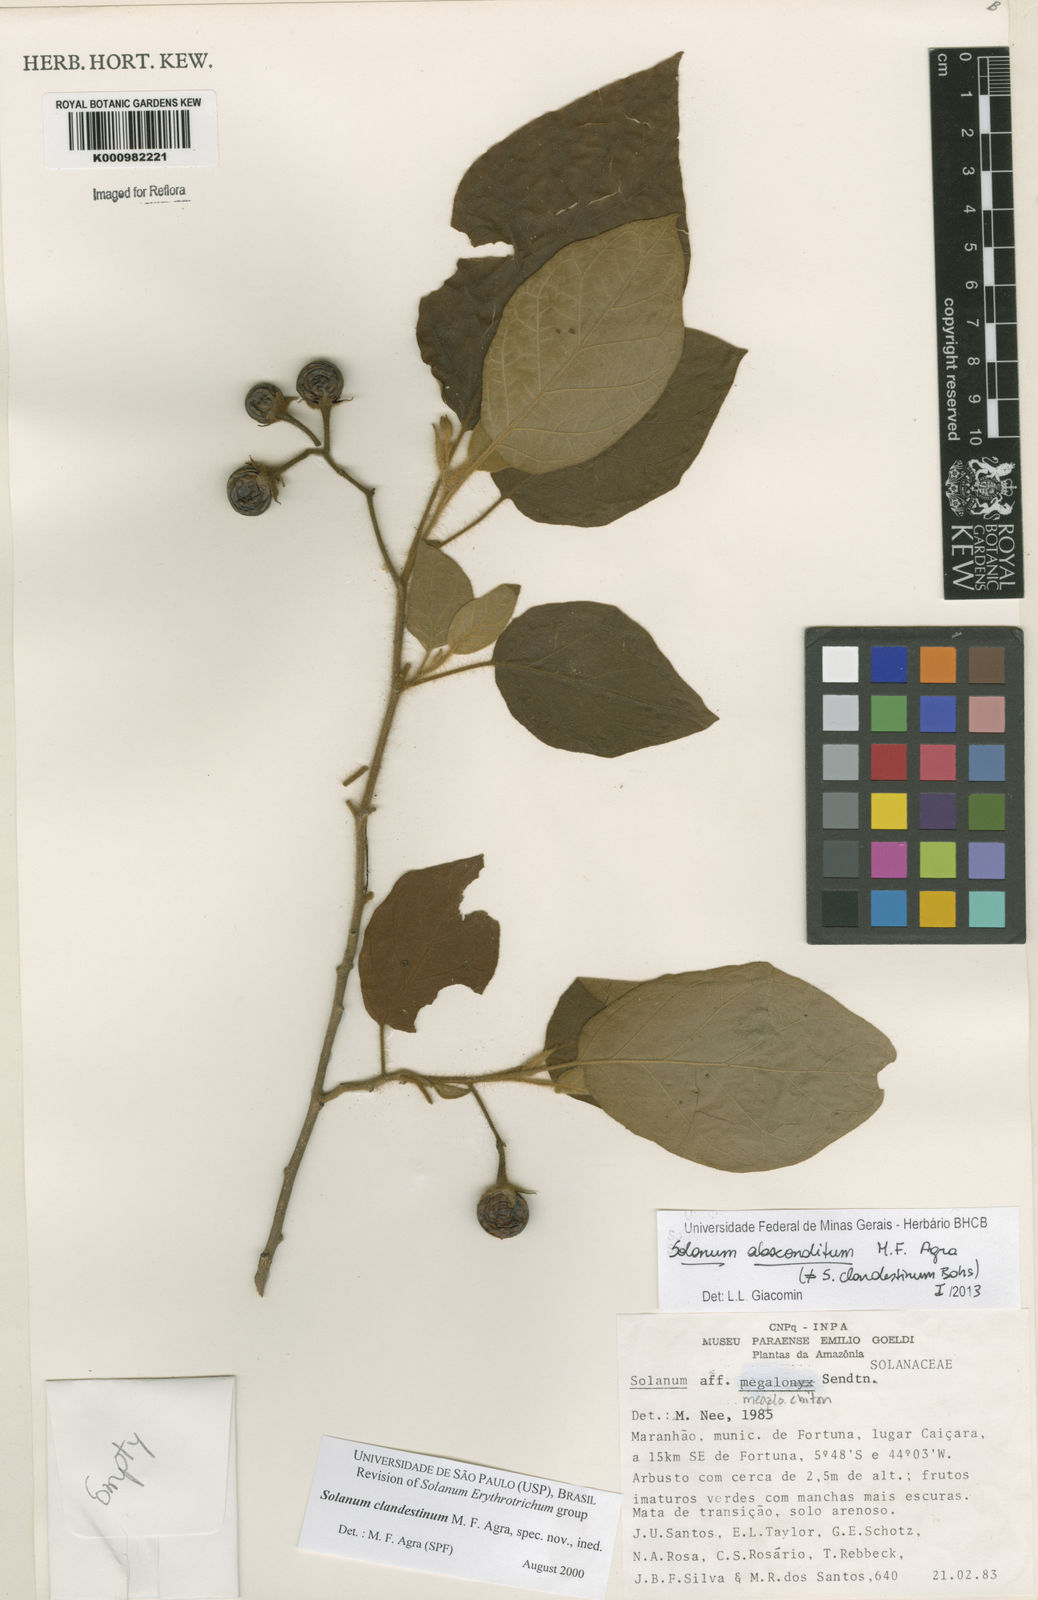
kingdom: Plantae
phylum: Tracheophyta
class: Magnoliopsida
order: Solanales
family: Solanaceae
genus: Solanum
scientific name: Solanum absconditum
